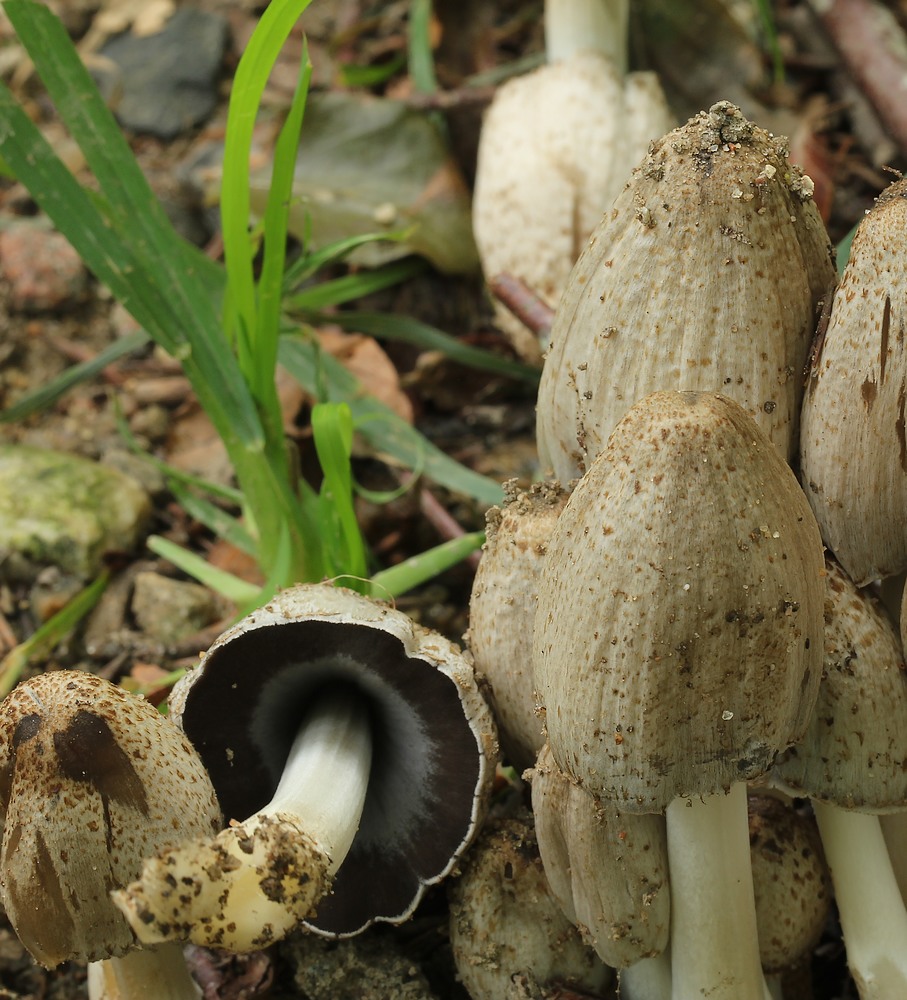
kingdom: Fungi
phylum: Basidiomycota
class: Agaricomycetes
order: Agaricales
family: Psathyrellaceae
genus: Coprinopsis
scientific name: Coprinopsis atramentaria
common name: almindelig blækhat
